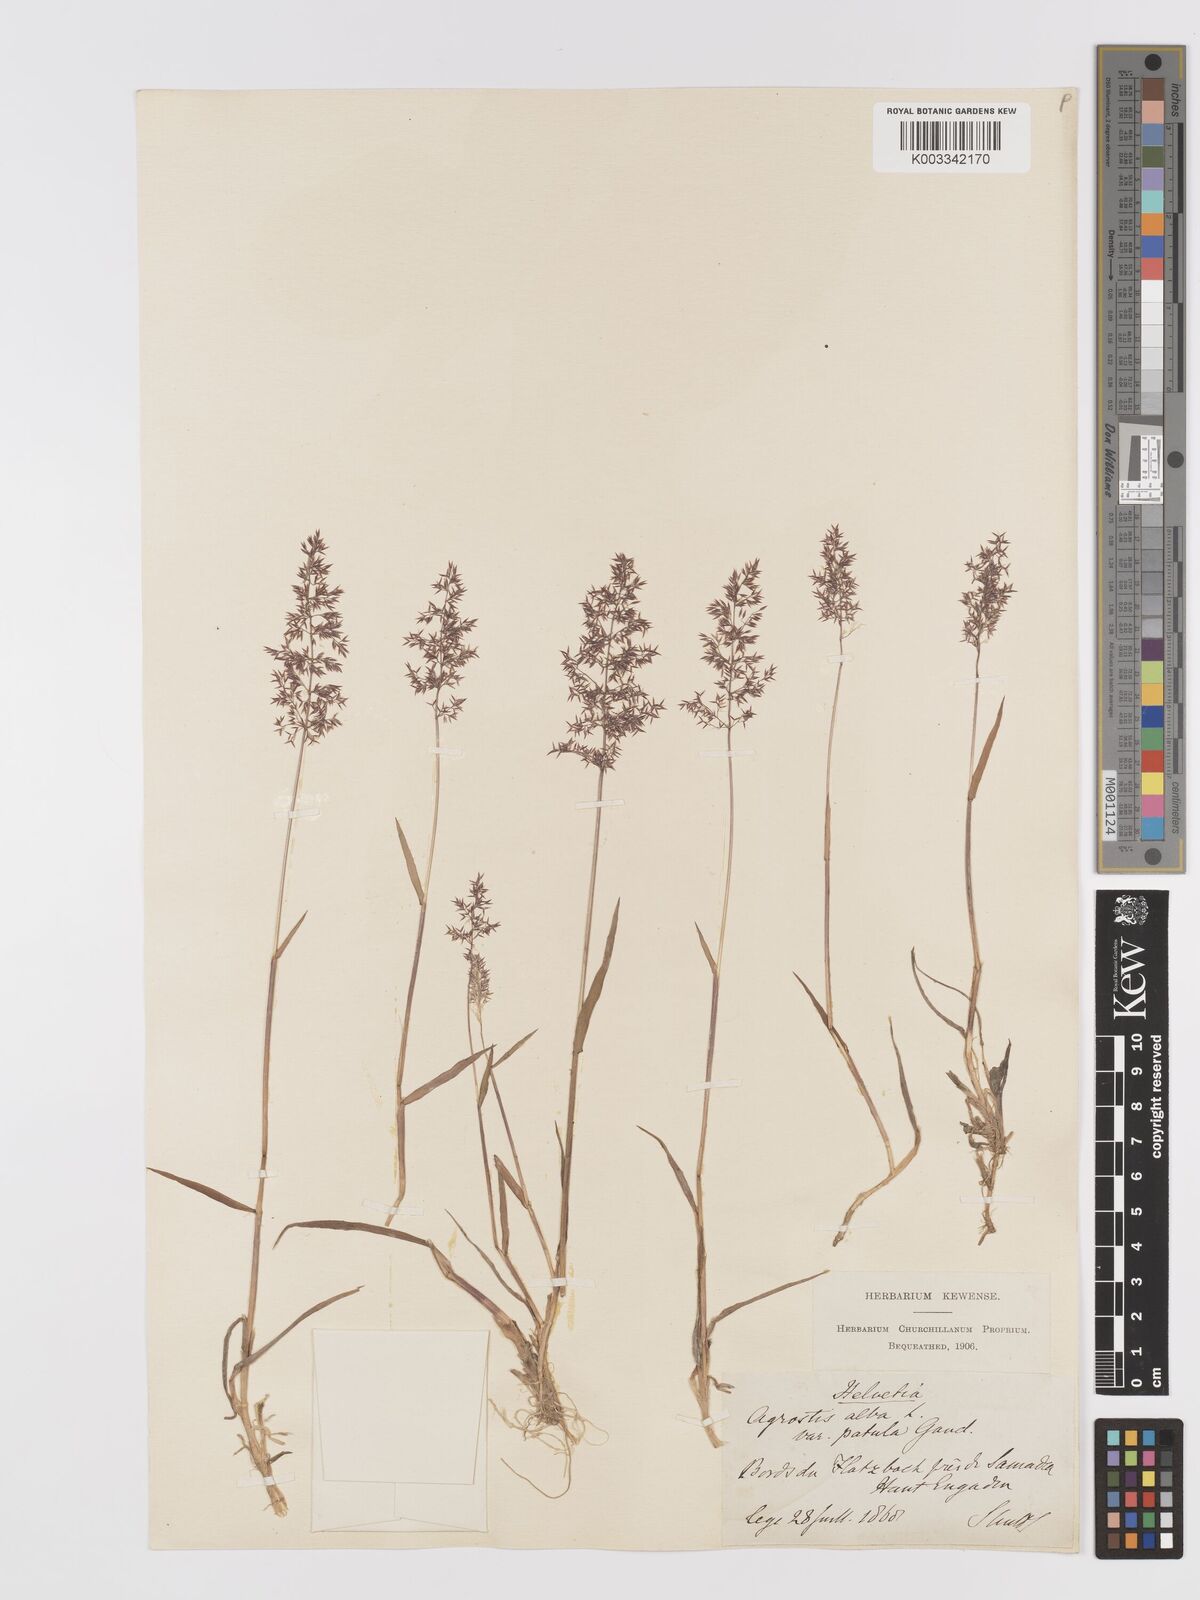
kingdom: Plantae
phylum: Tracheophyta
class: Liliopsida
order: Poales
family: Poaceae
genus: Agrostis
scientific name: Agrostis stolonifera
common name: Creeping bentgrass
